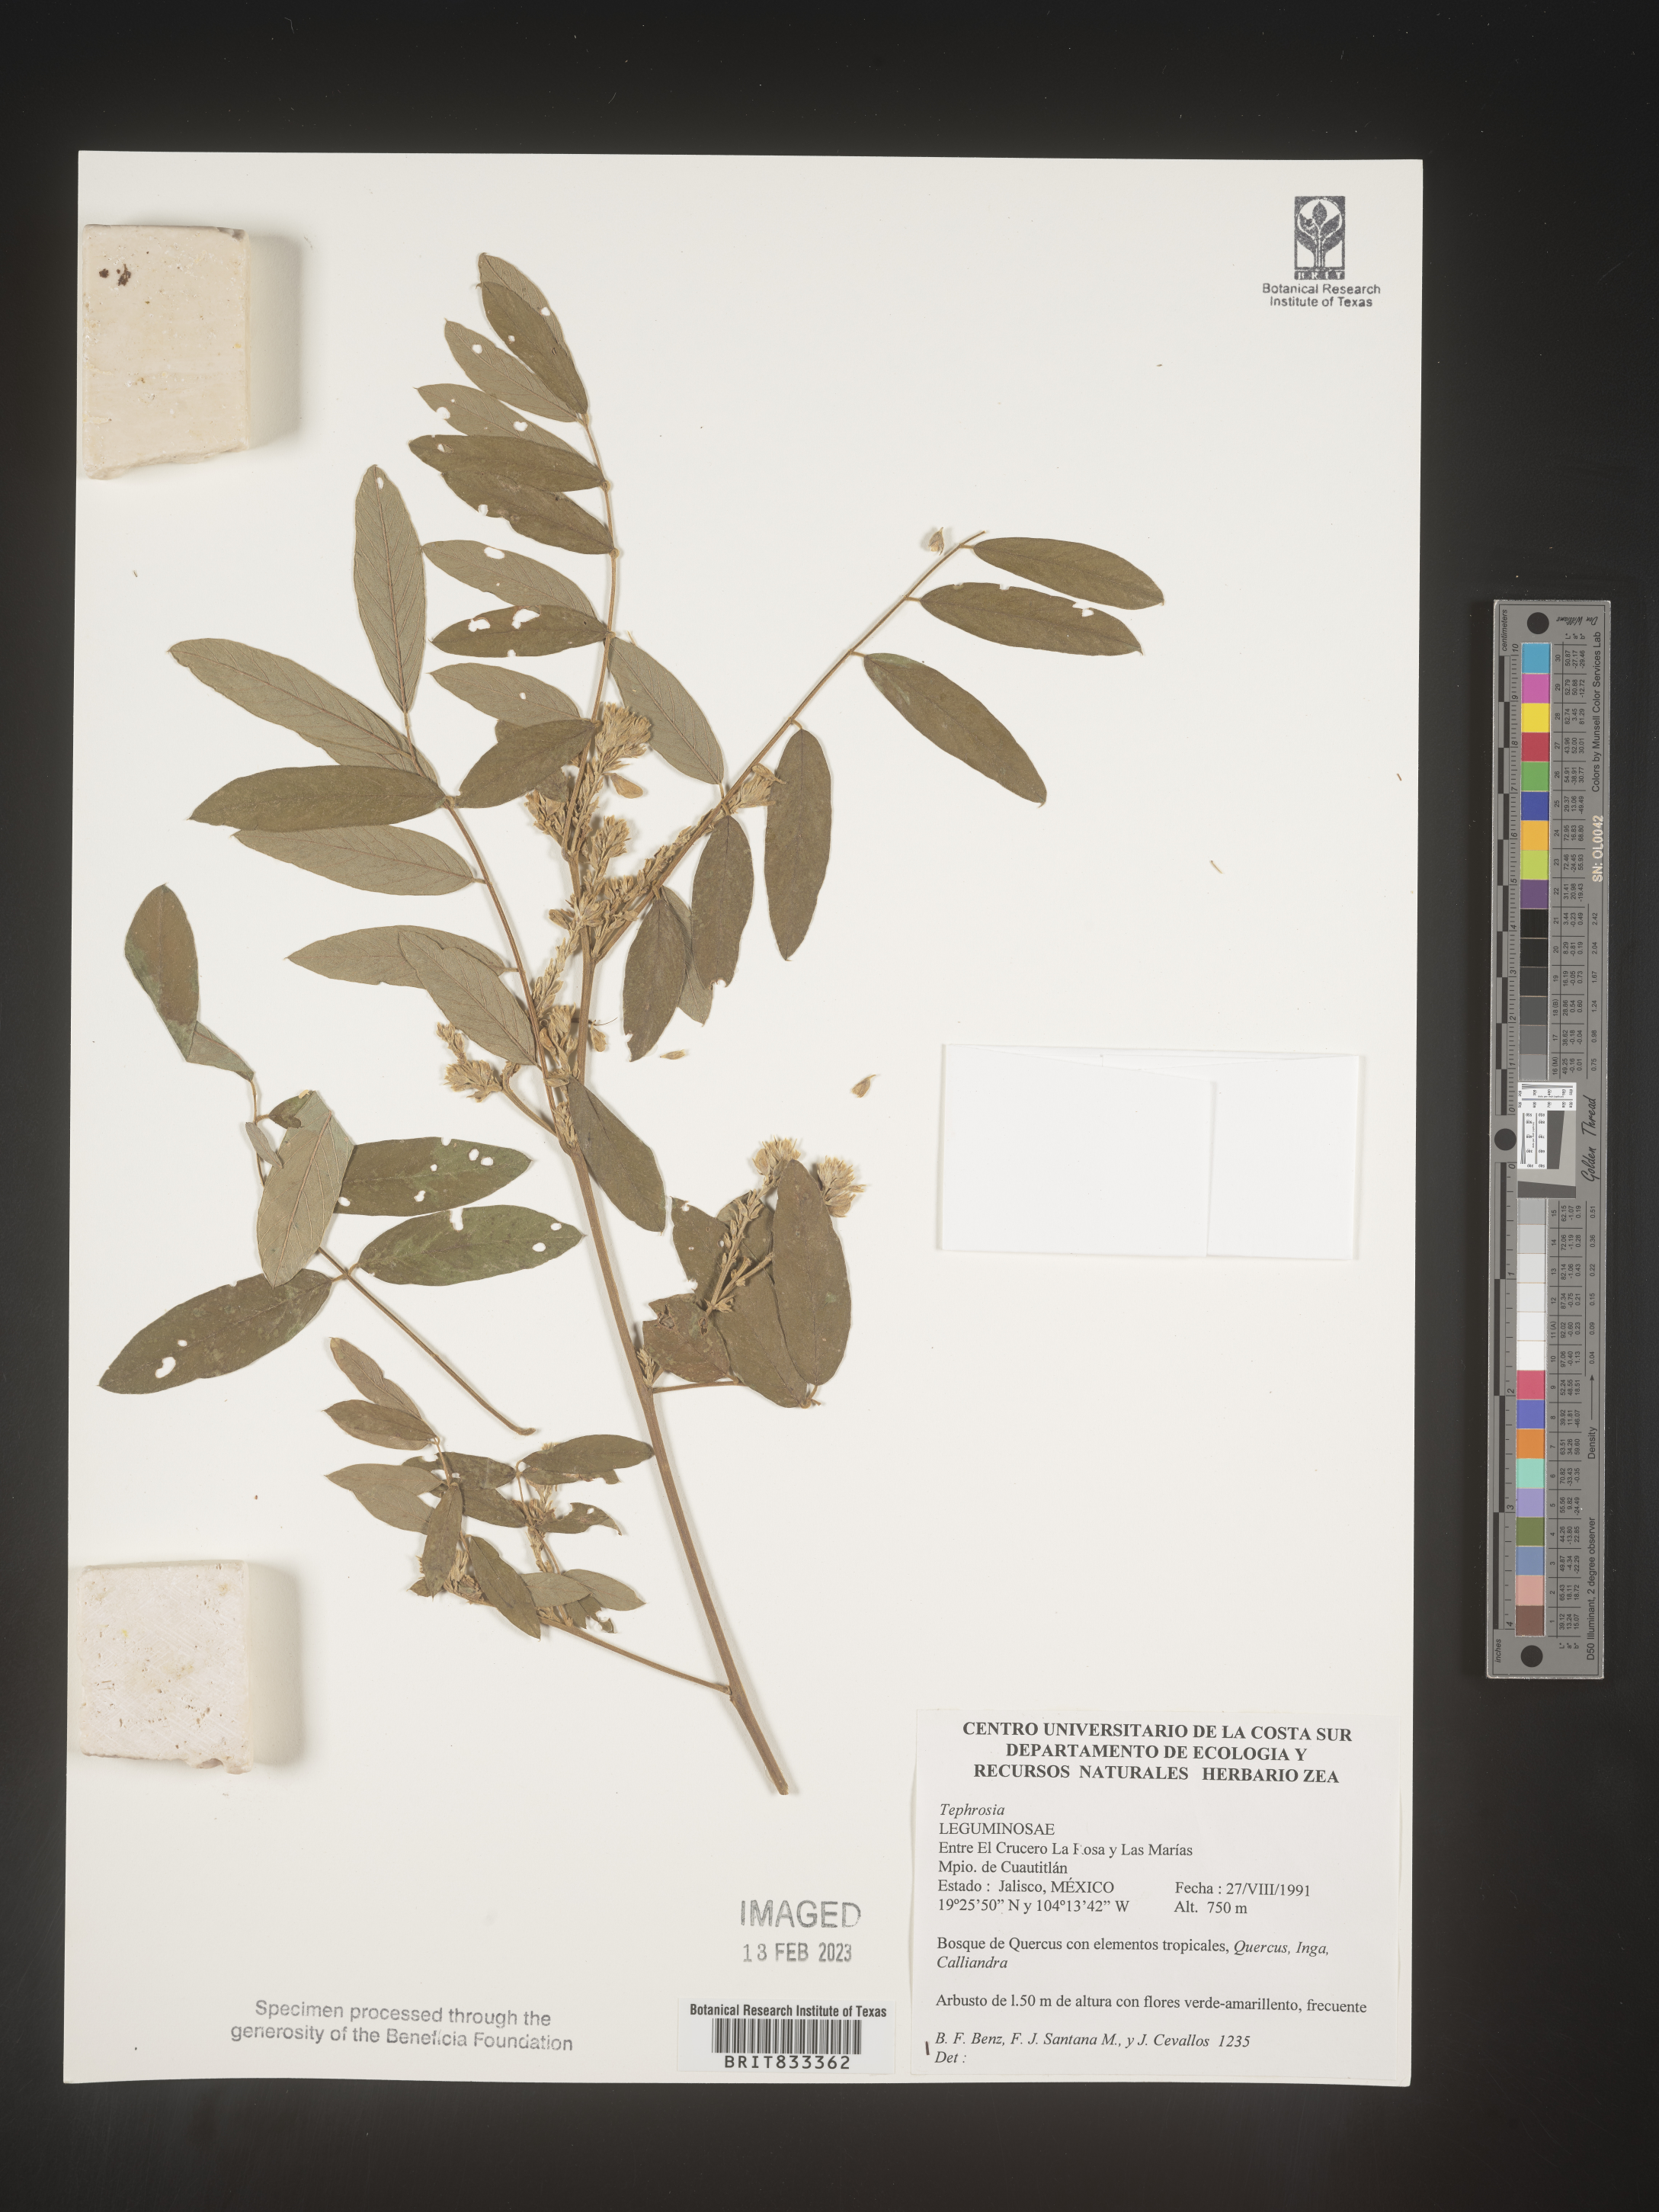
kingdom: Plantae
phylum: Tracheophyta
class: Magnoliopsida
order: Fabales
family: Fabaceae
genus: Tephrosia
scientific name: Tephrosia
